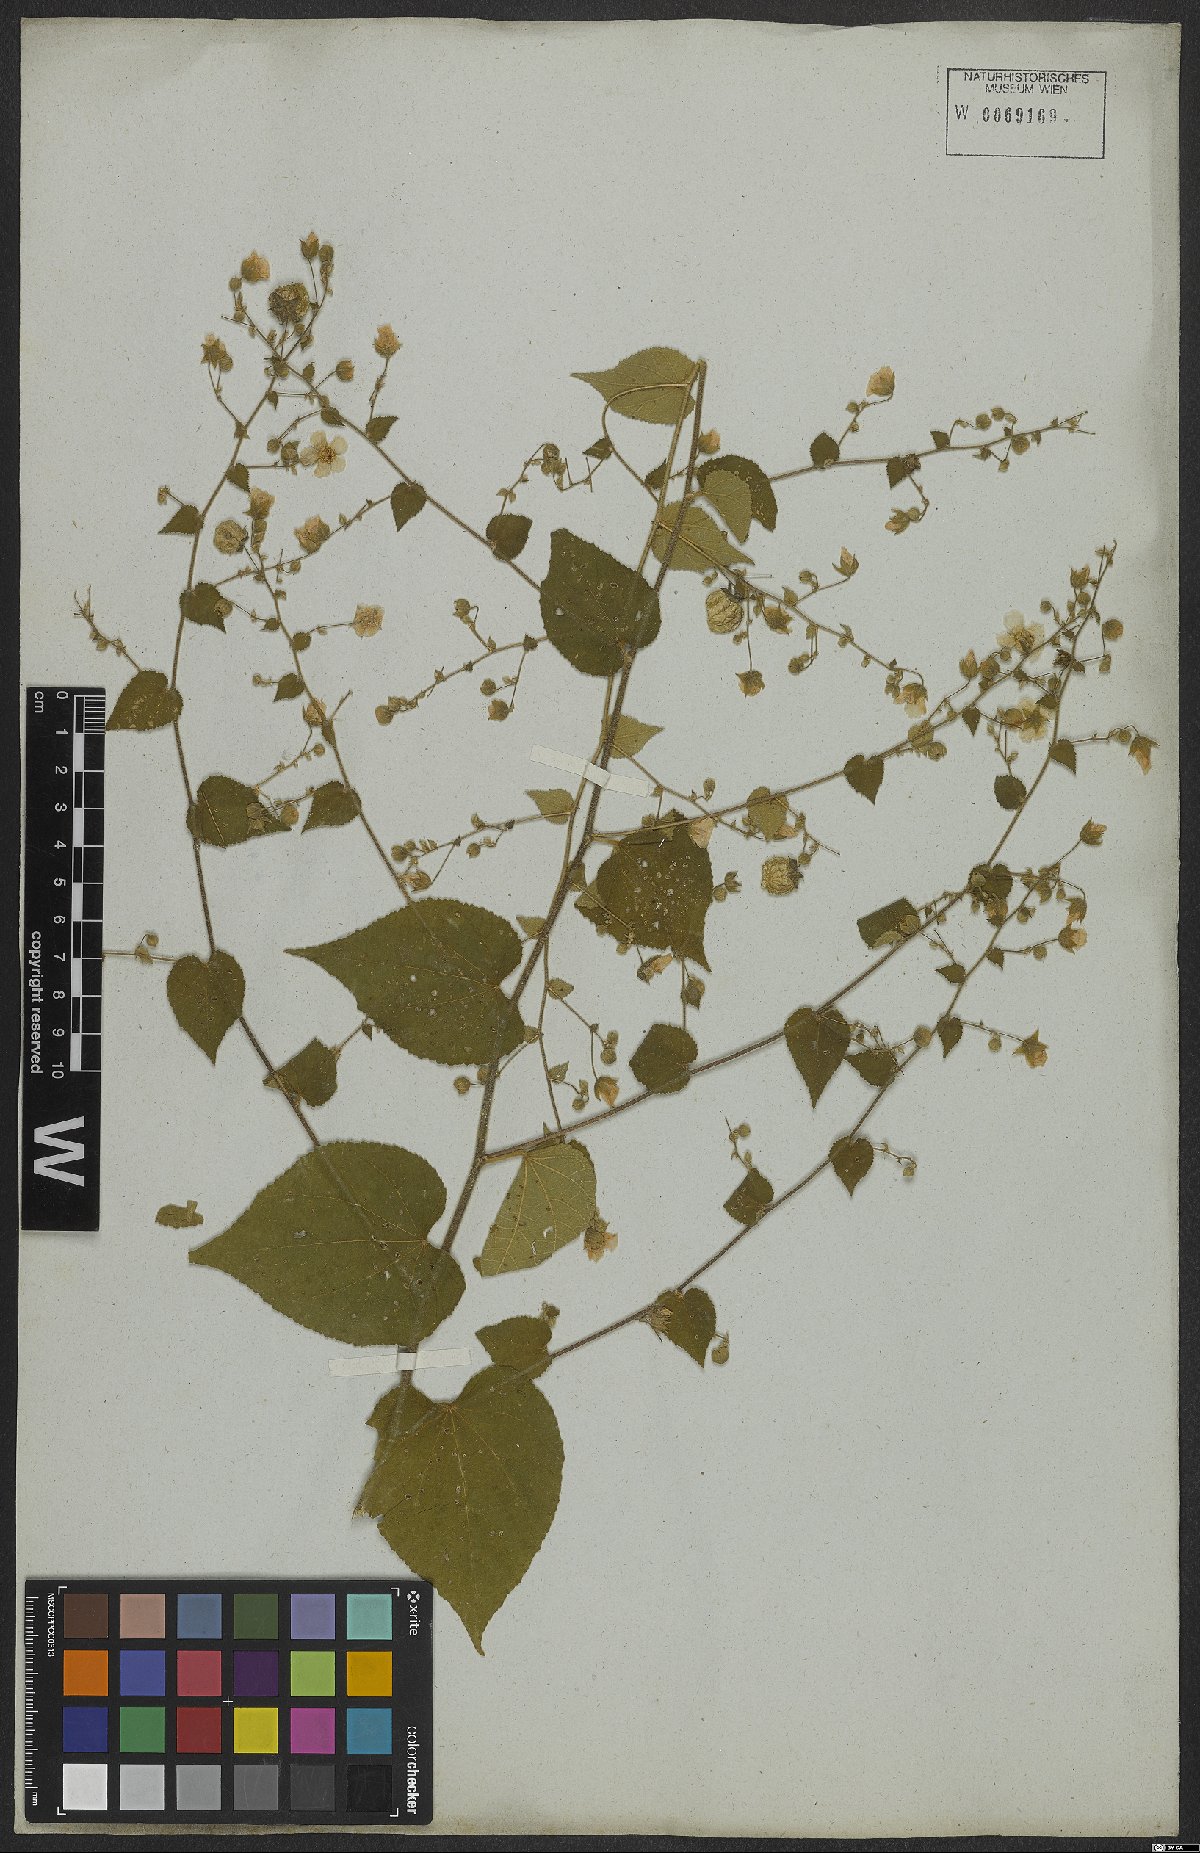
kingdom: Plantae
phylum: Tracheophyta
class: Magnoliopsida
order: Malvales
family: Malvaceae
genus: Herissantia
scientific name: Herissantia crispa
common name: Bladdermallow
